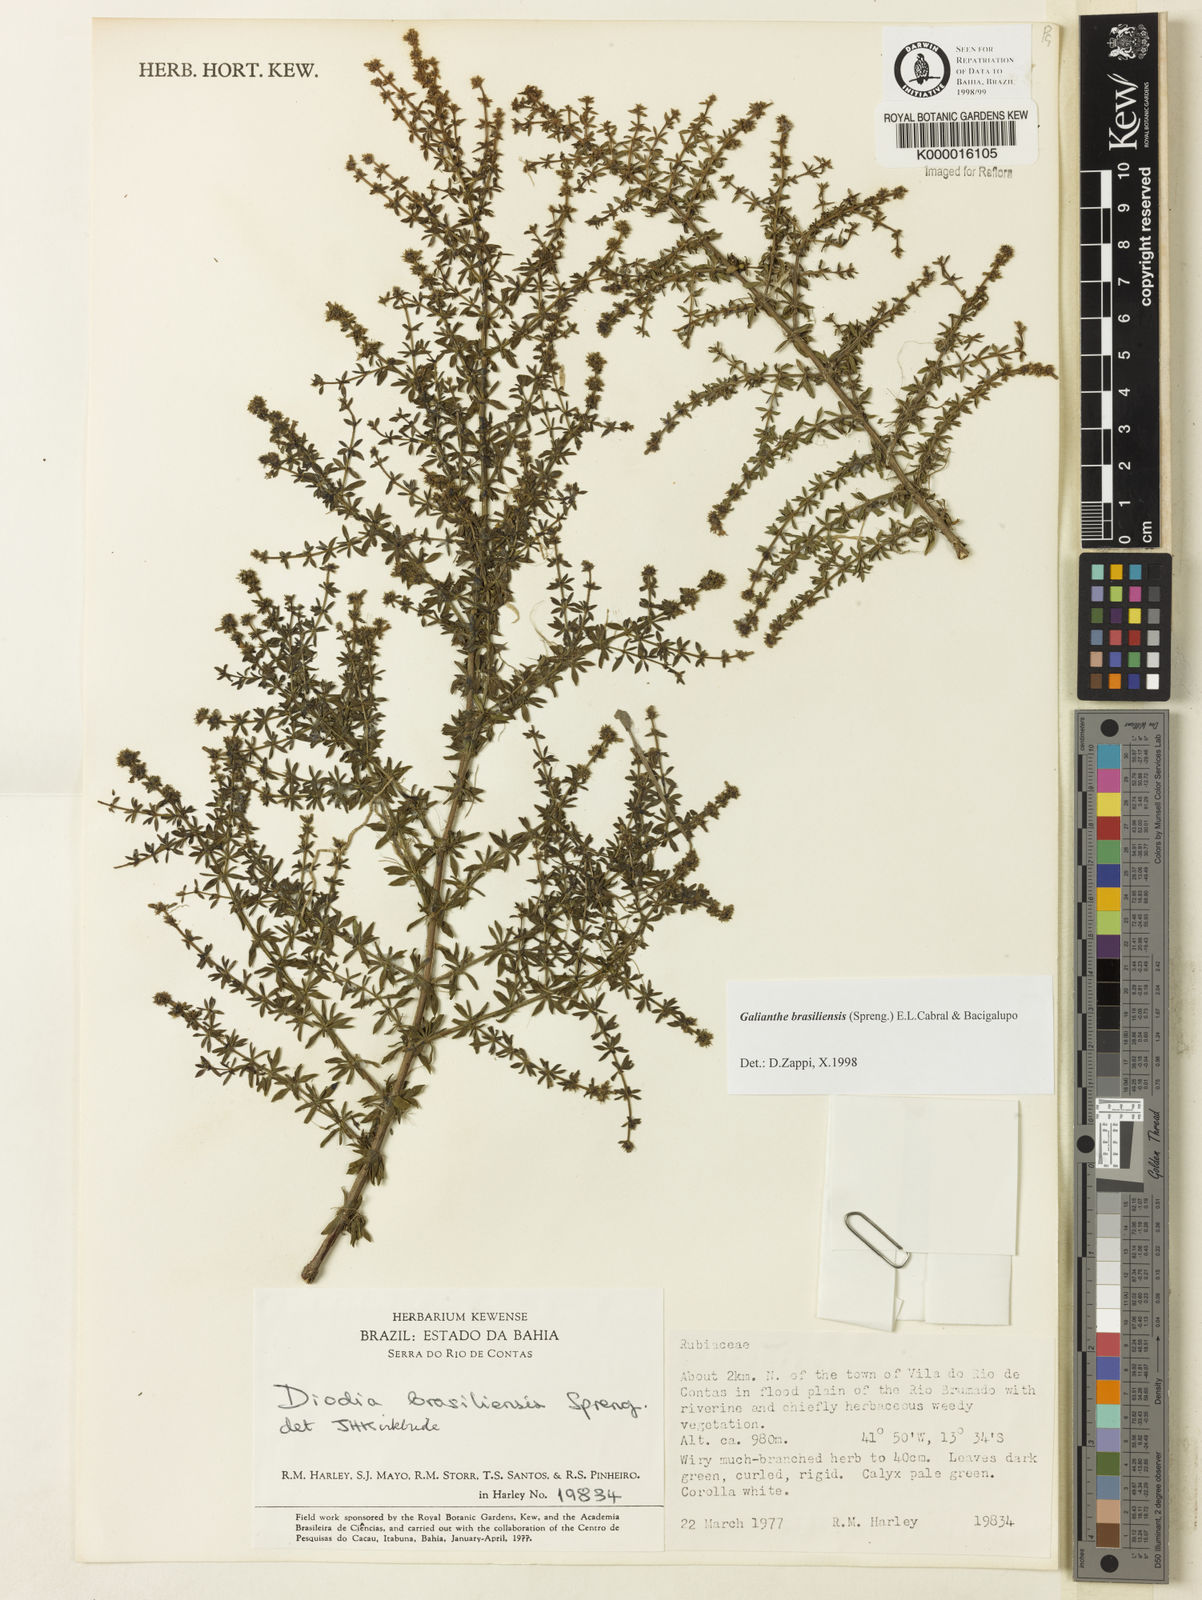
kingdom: Plantae
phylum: Tracheophyta
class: Magnoliopsida
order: Gentianales
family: Rubiaceae
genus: Galianthe
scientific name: Galianthe brasiliensis
